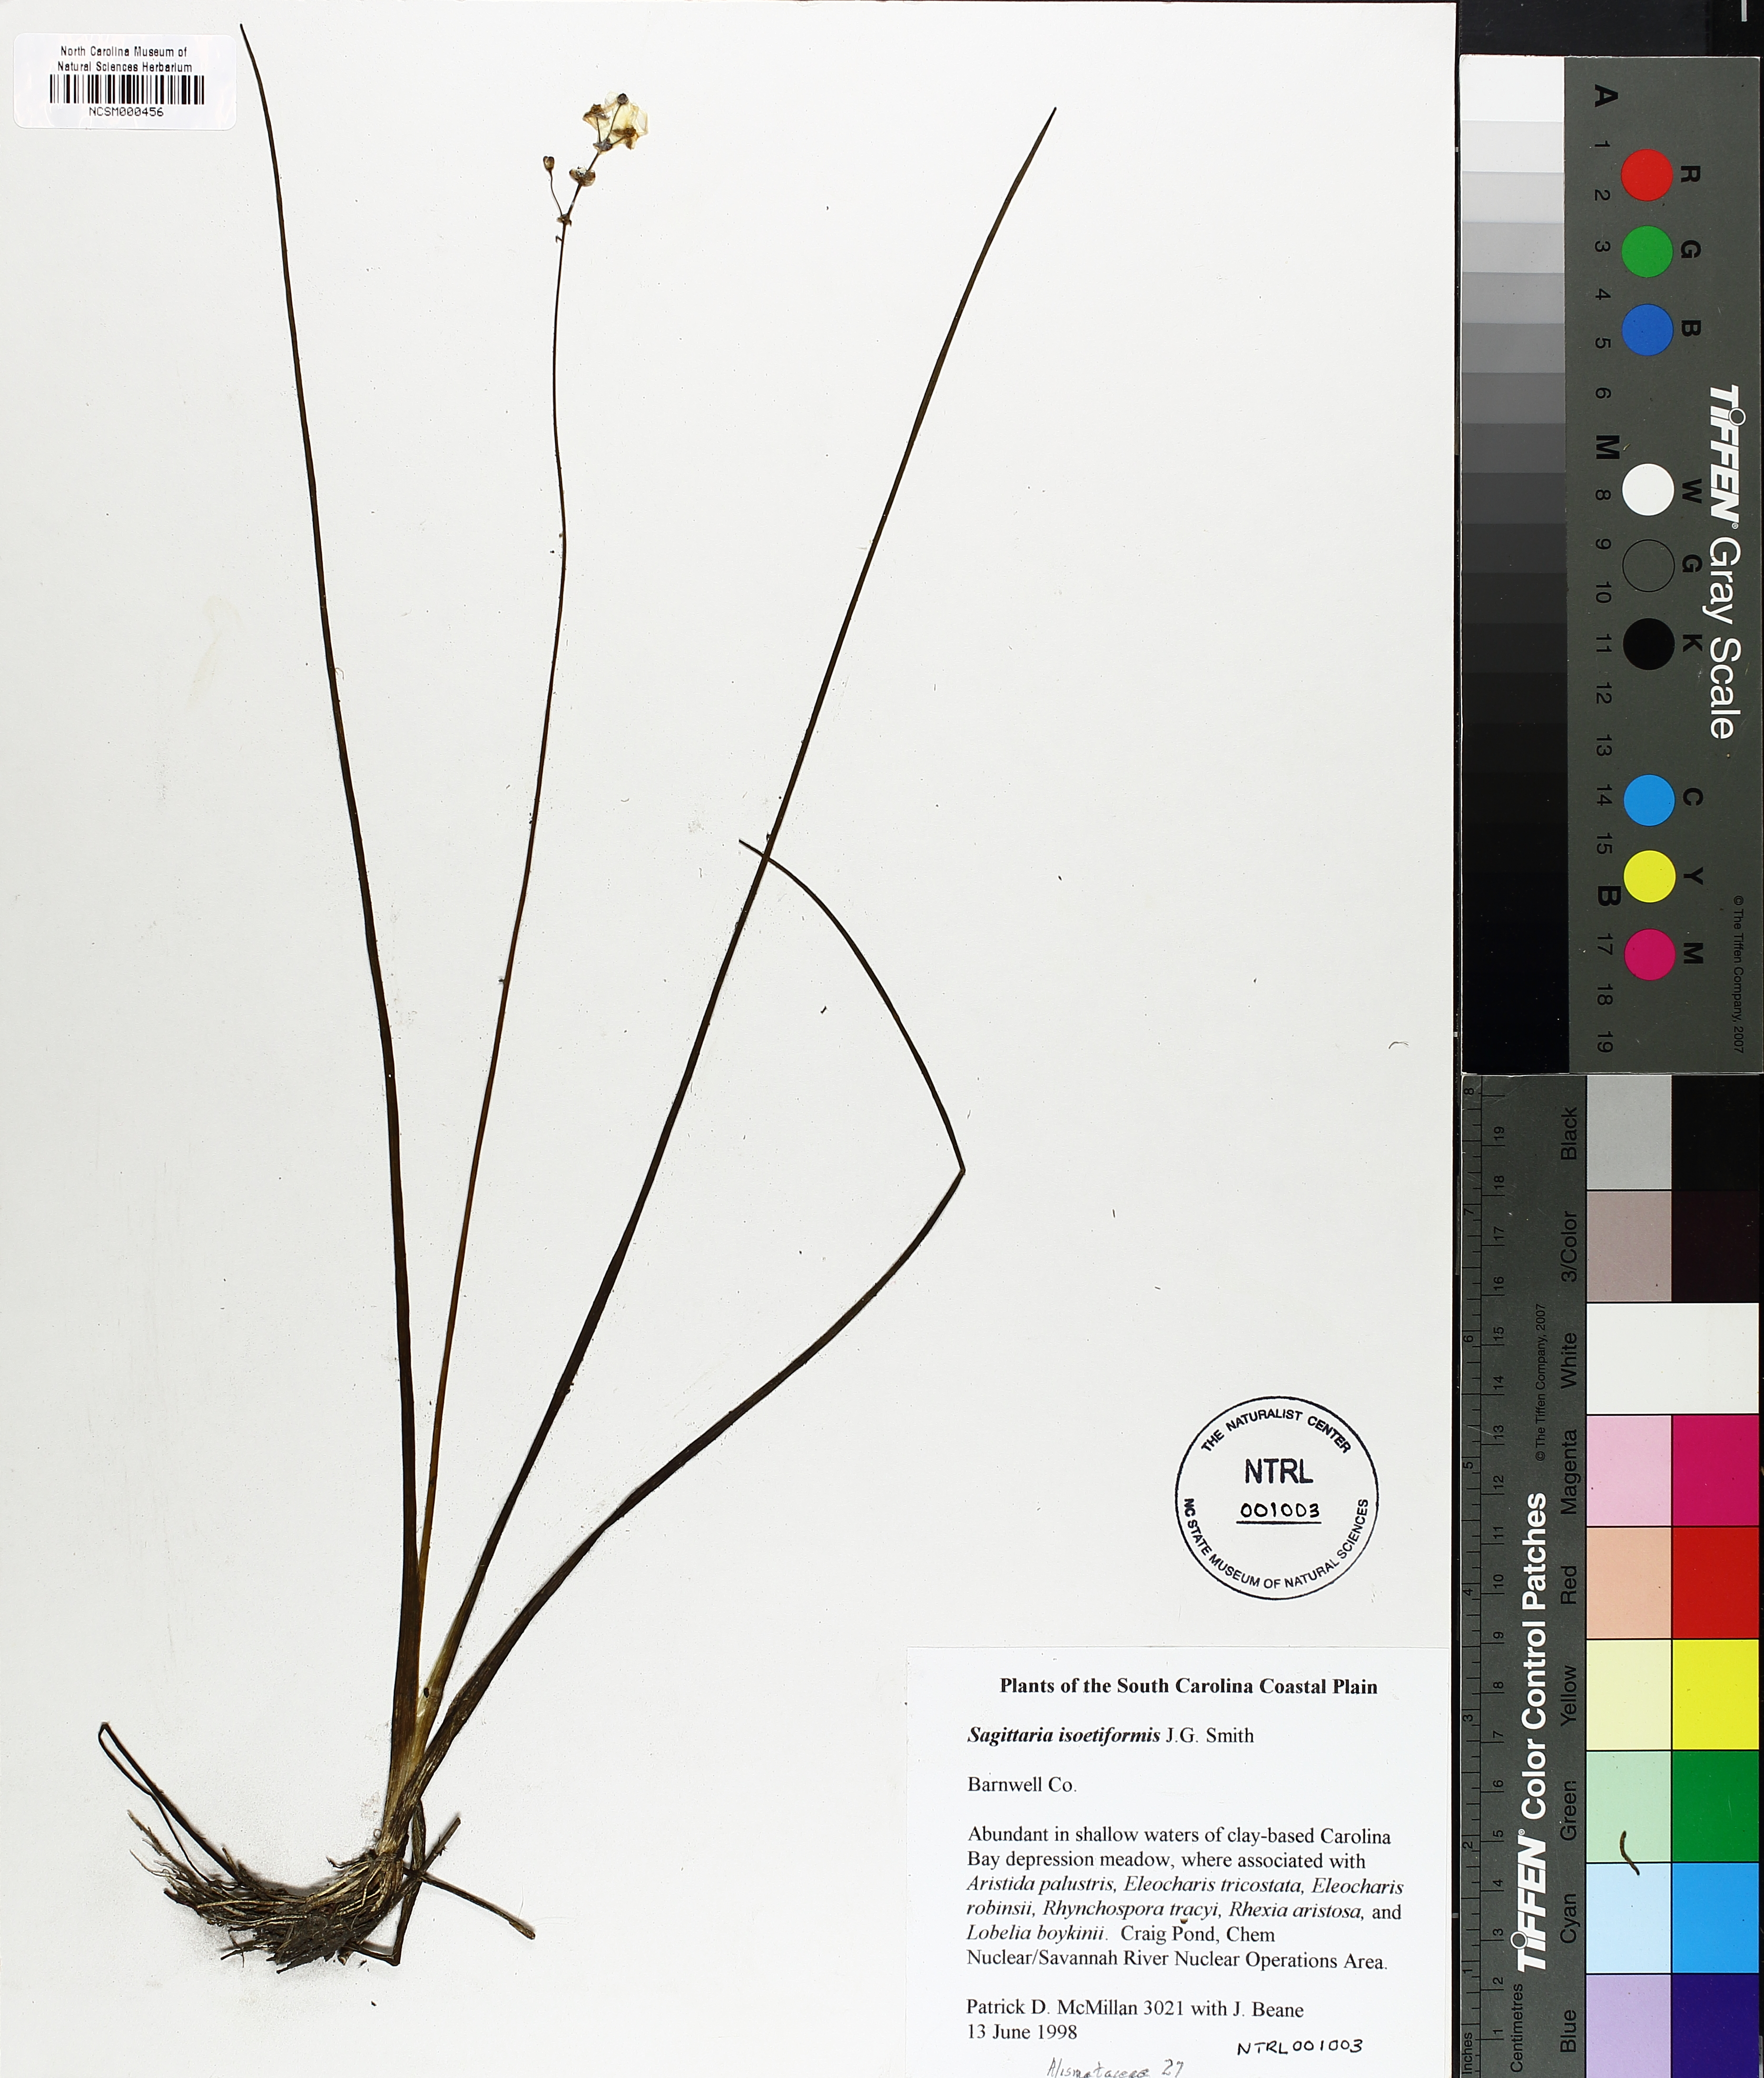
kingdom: Plantae
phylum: Tracheophyta
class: Liliopsida
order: Alismatales
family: Alismataceae
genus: Sagittaria
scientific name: Sagittaria isoetiformis
